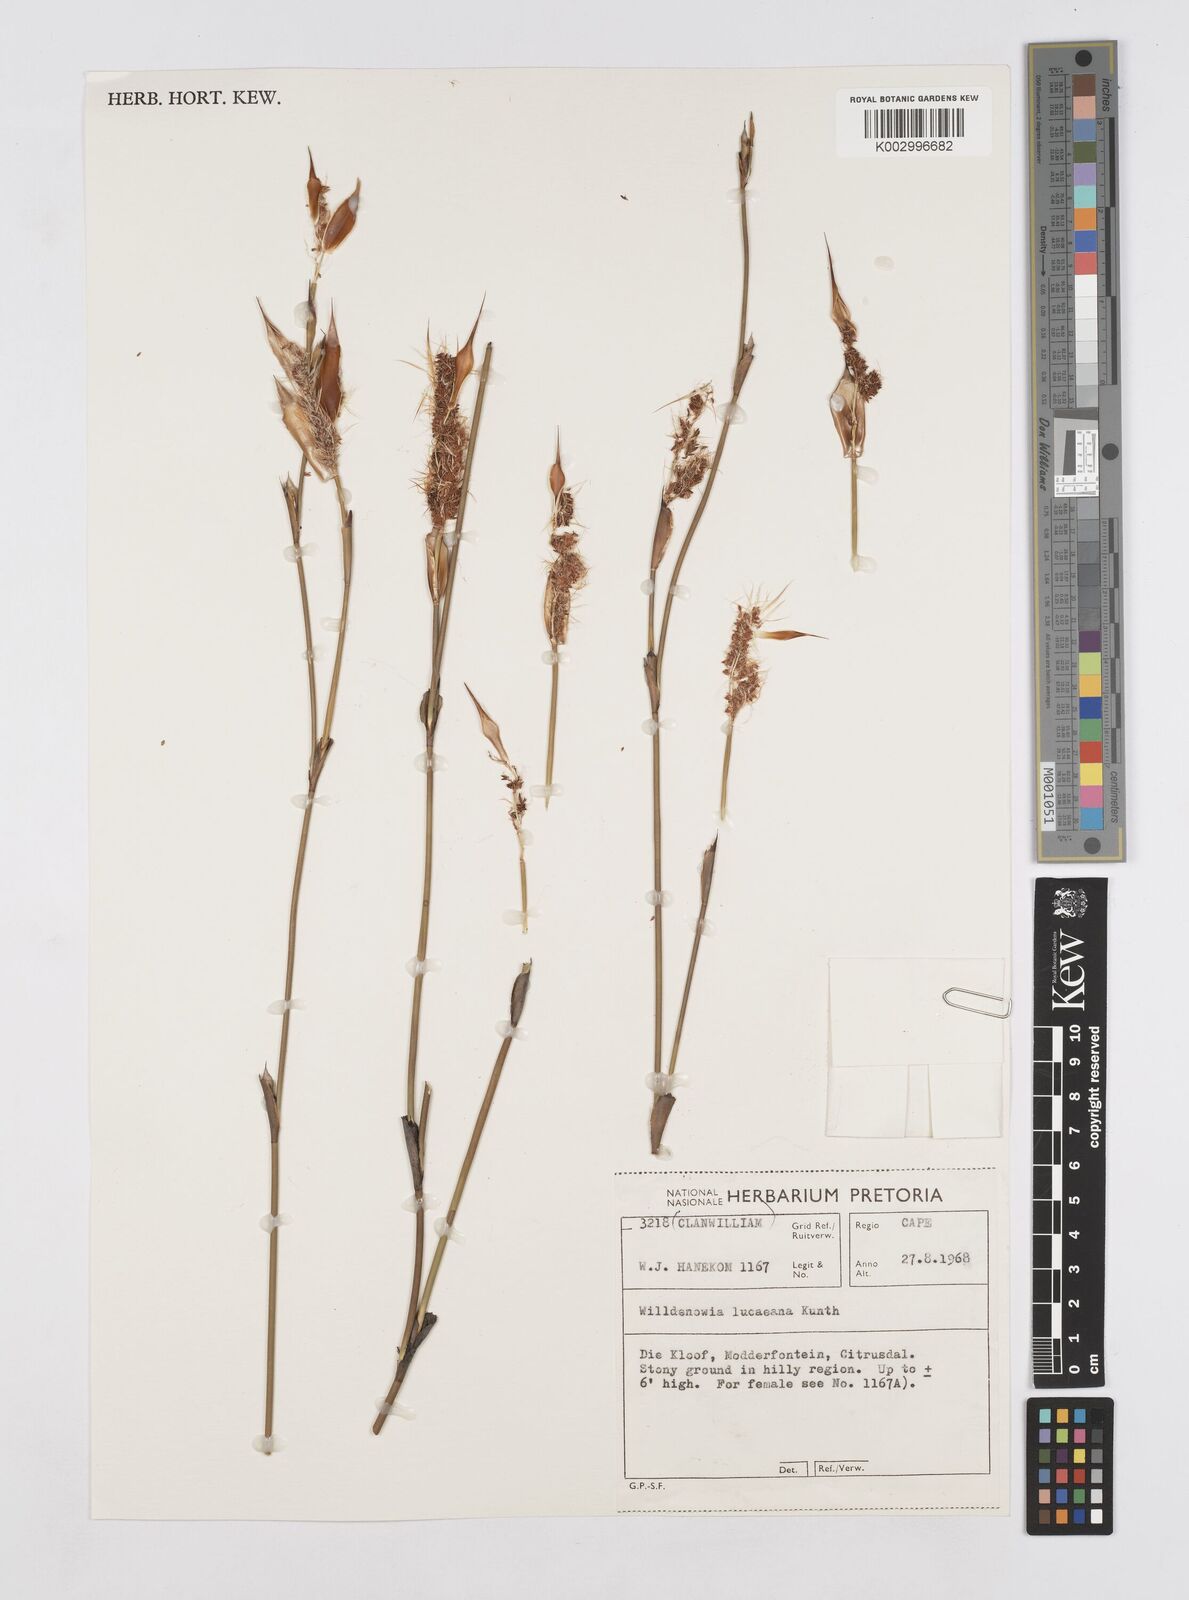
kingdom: Plantae
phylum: Tracheophyta
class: Liliopsida
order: Poales
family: Restionaceae
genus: Willdenowia
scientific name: Willdenowia glomerata
